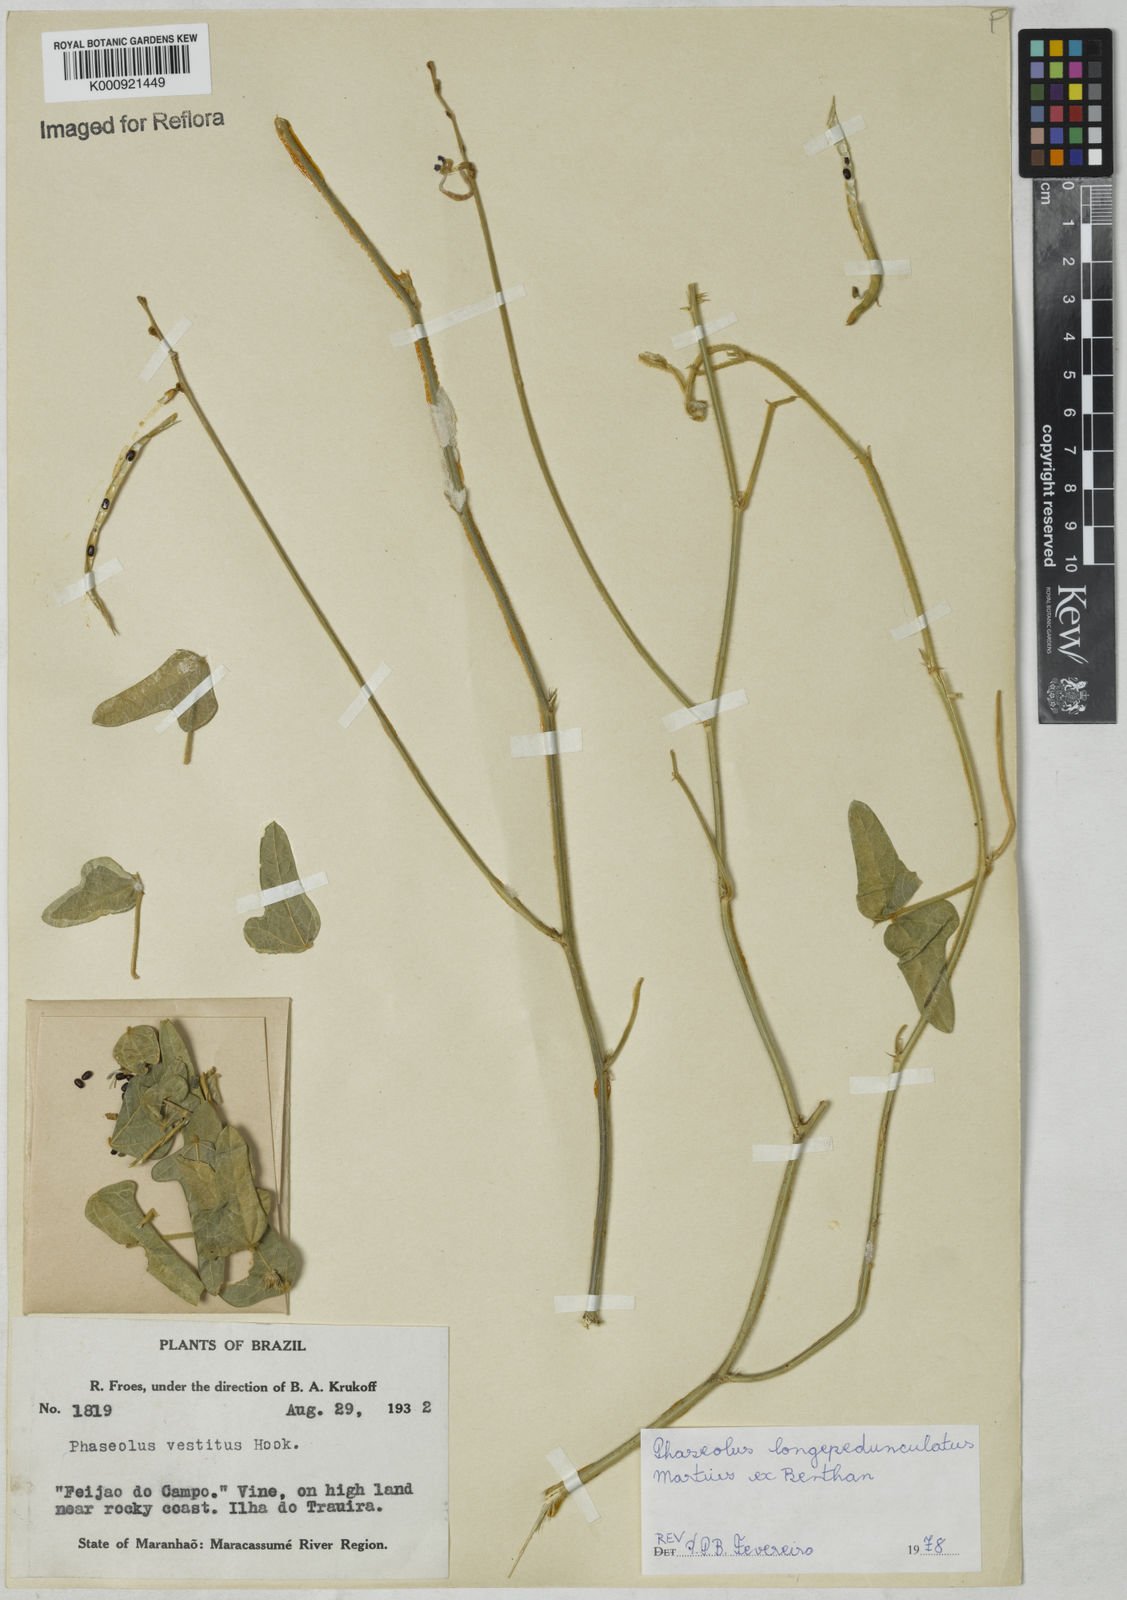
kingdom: Plantae
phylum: Tracheophyta
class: Magnoliopsida
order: Fabales
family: Fabaceae
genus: Macroptilium
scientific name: Macroptilium
